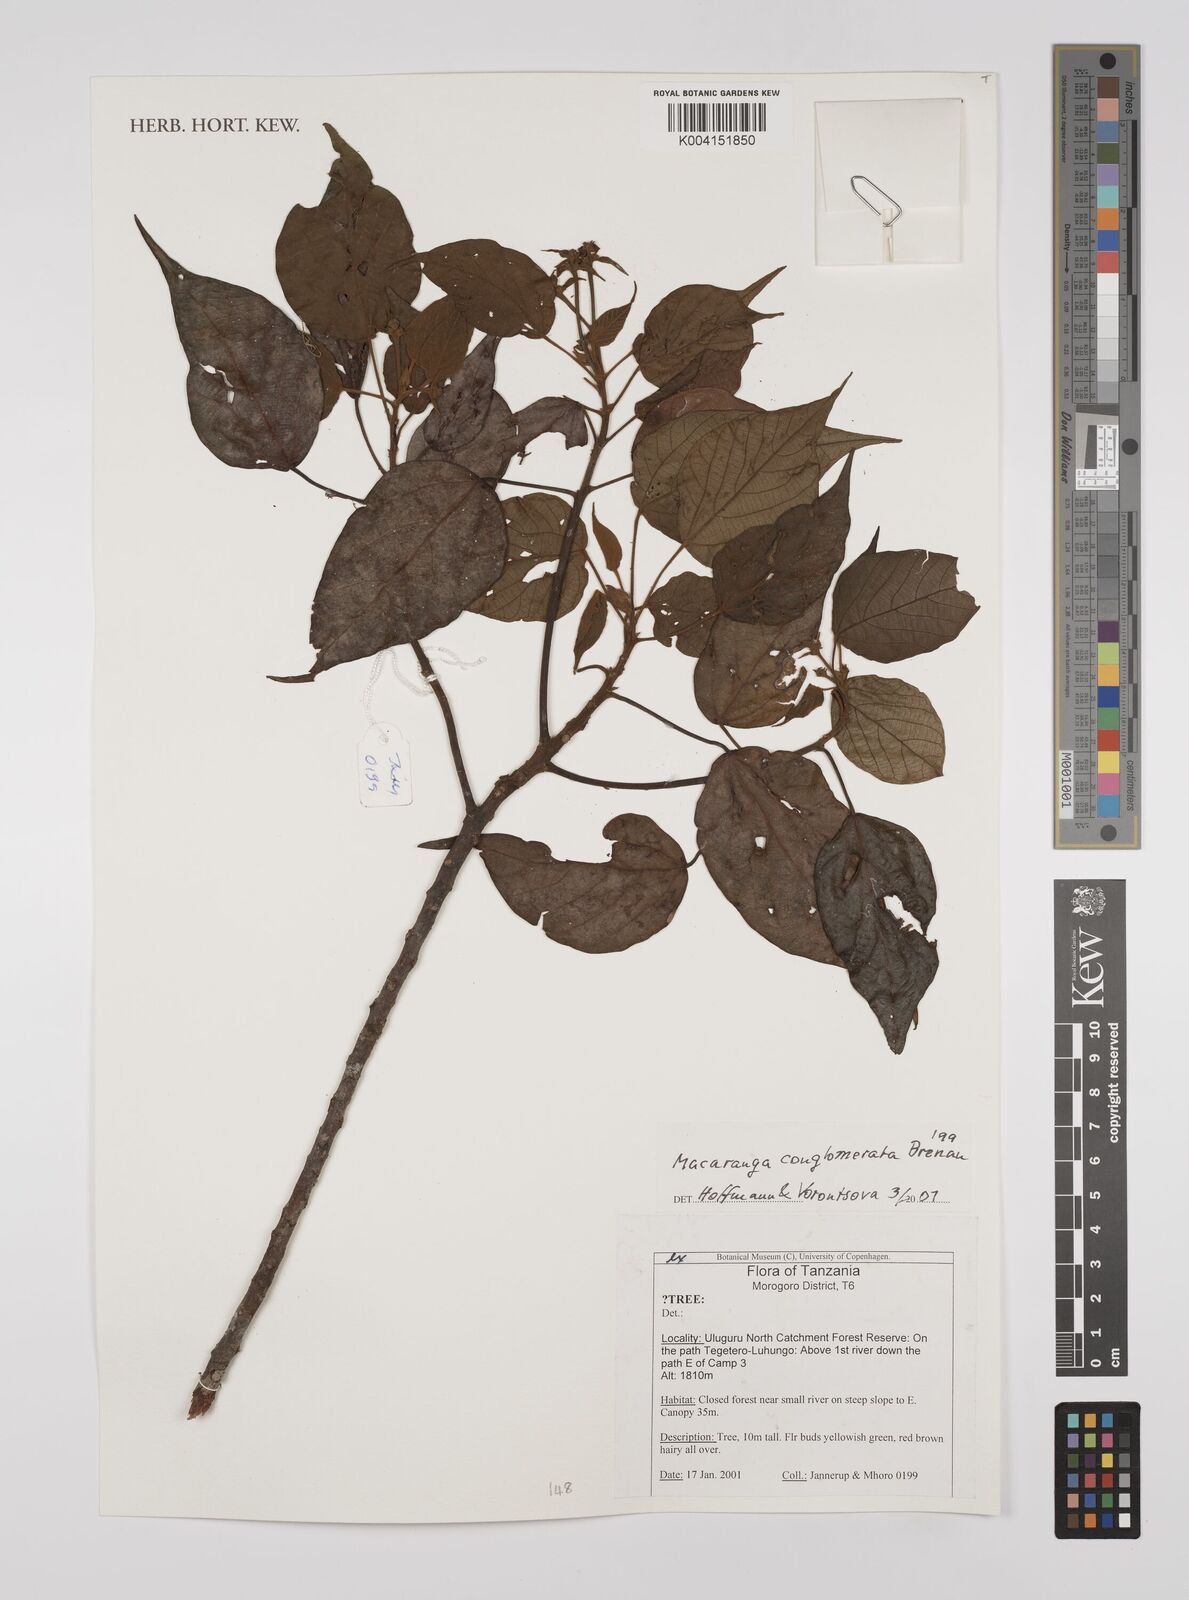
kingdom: Plantae
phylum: Tracheophyta
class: Magnoliopsida
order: Malpighiales
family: Euphorbiaceae
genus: Macaranga
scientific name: Macaranga conglomerata
